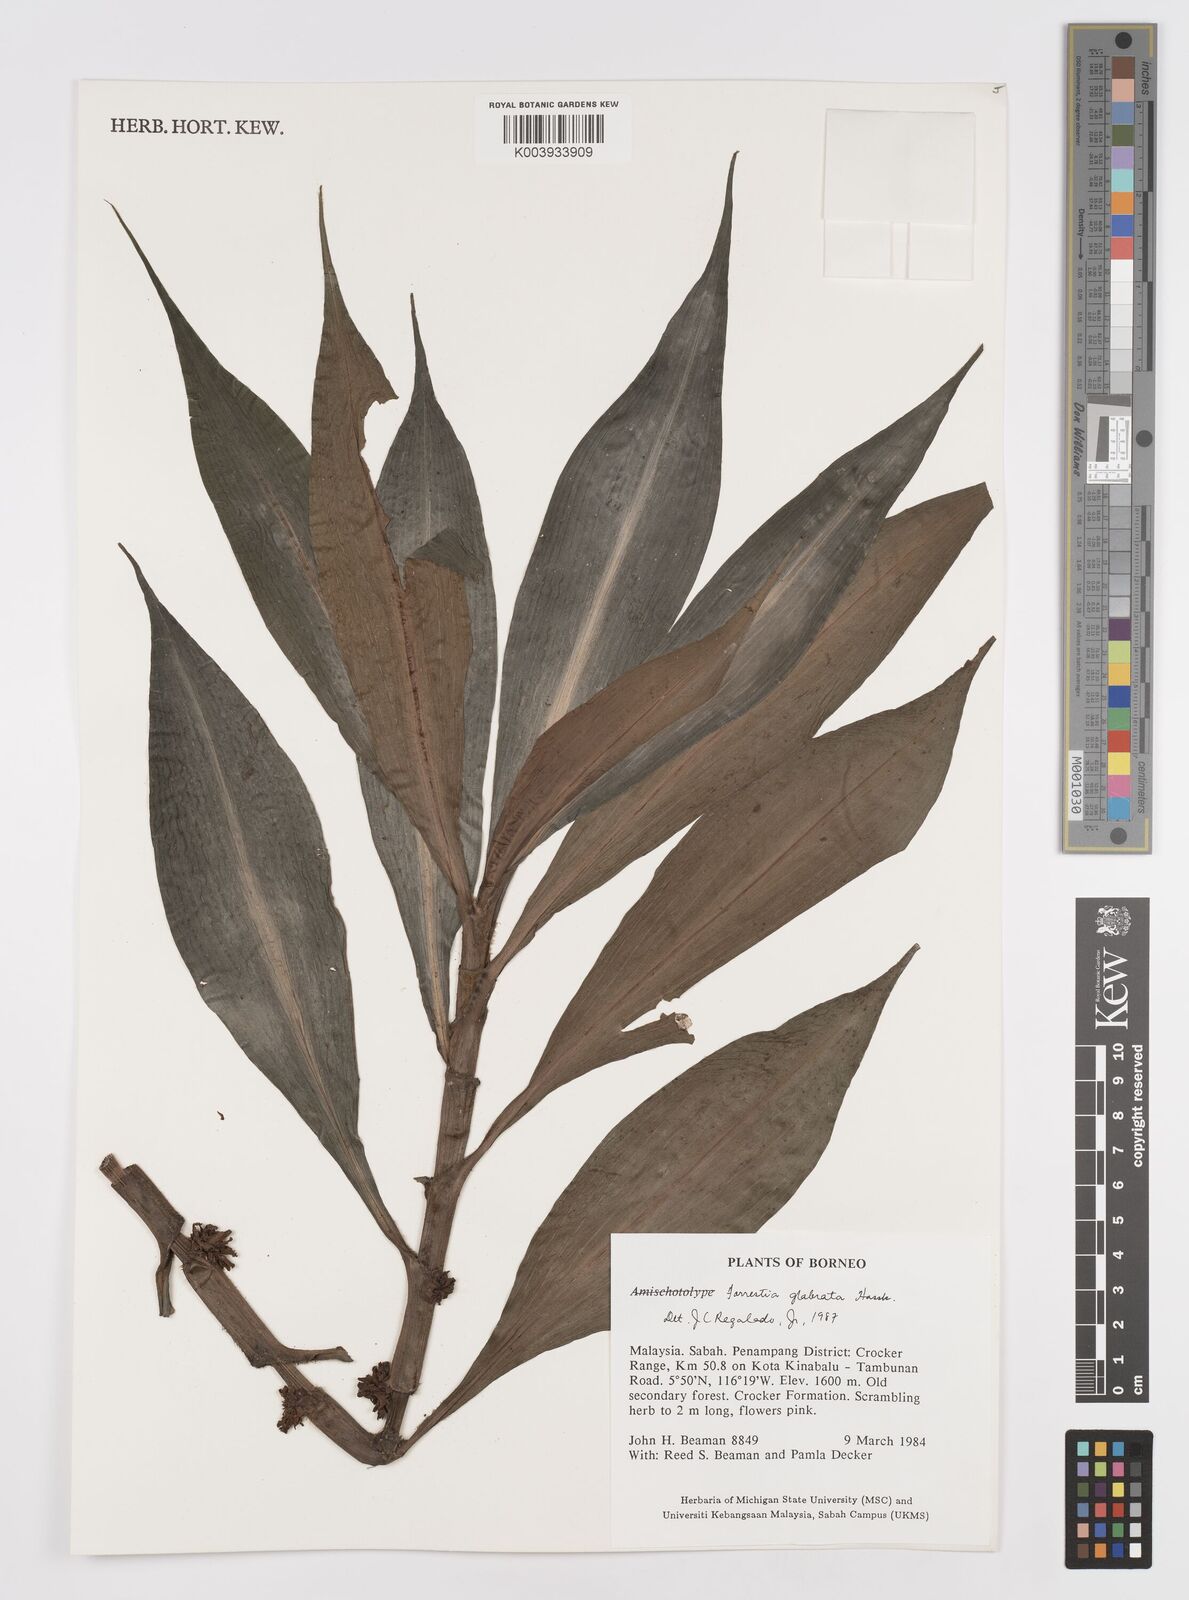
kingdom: Plantae
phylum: Tracheophyta
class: Liliopsida
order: Commelinales
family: Commelinaceae
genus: Amischotolype
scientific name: Amischotolype glabrata
